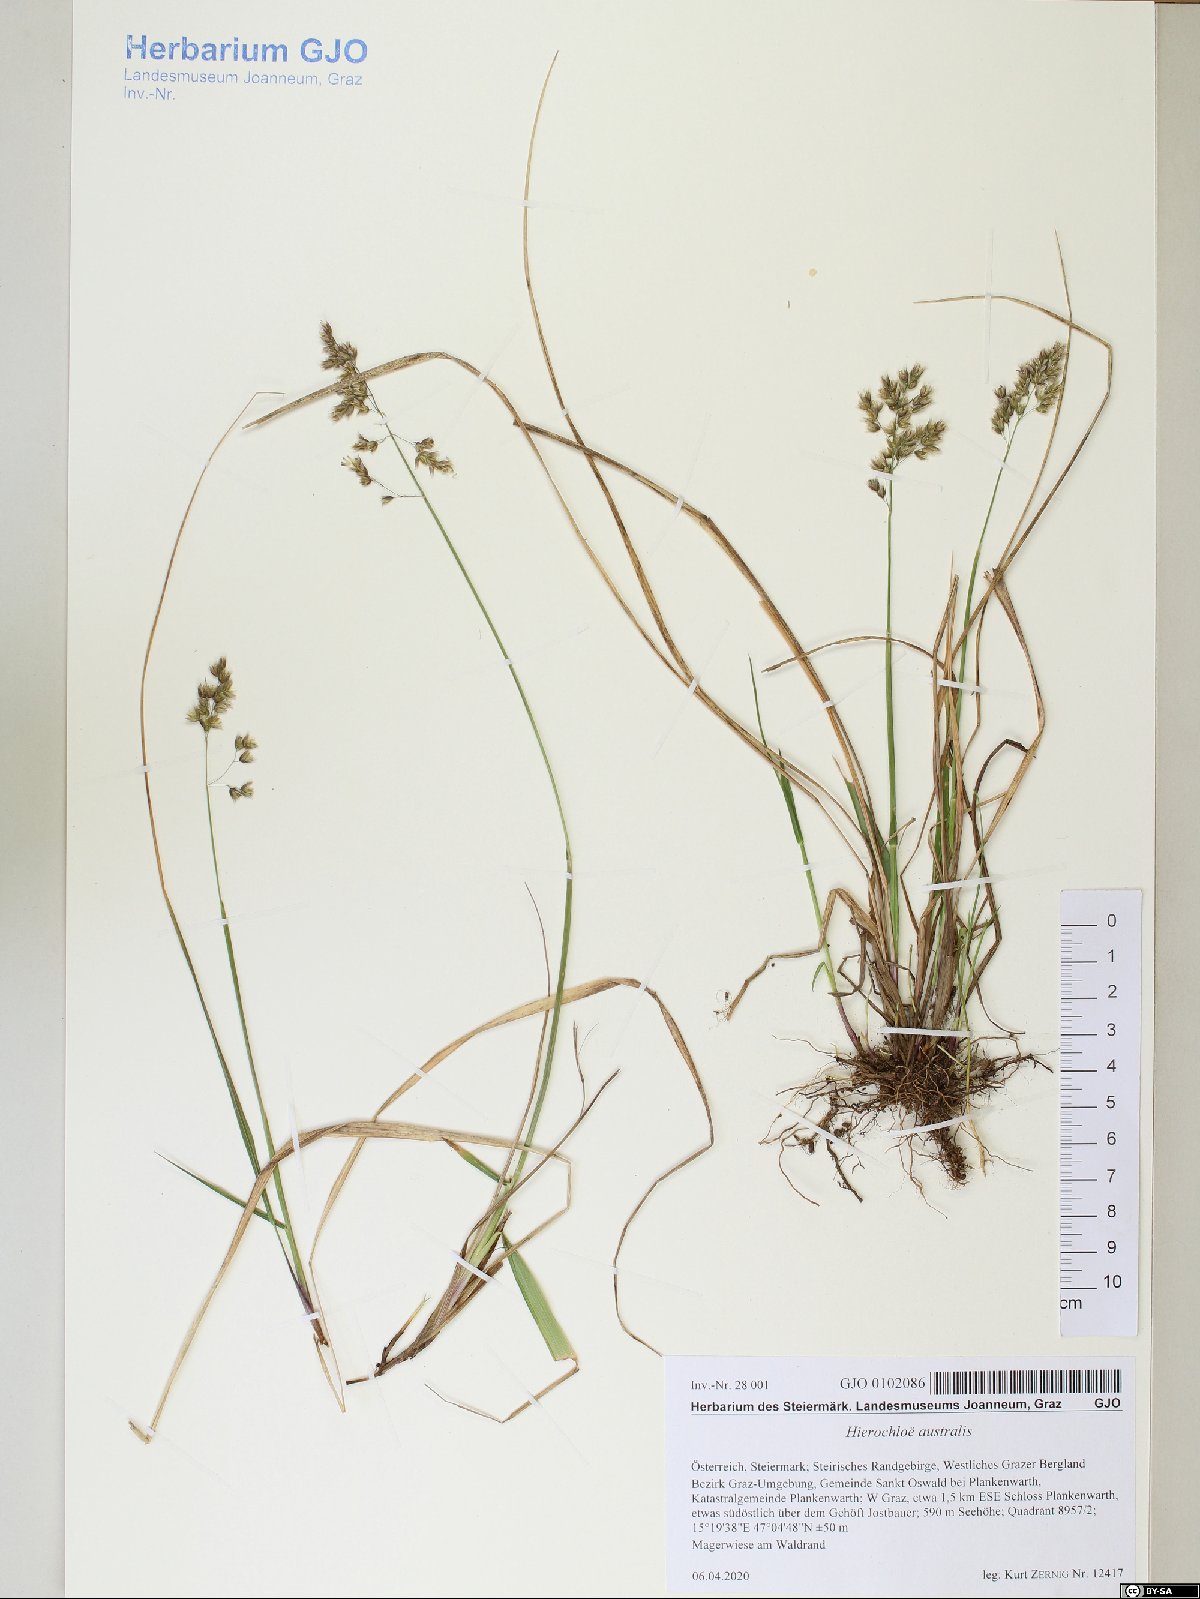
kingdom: Plantae
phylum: Tracheophyta
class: Liliopsida
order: Poales
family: Poaceae
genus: Anthoxanthum
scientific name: Anthoxanthum australe
